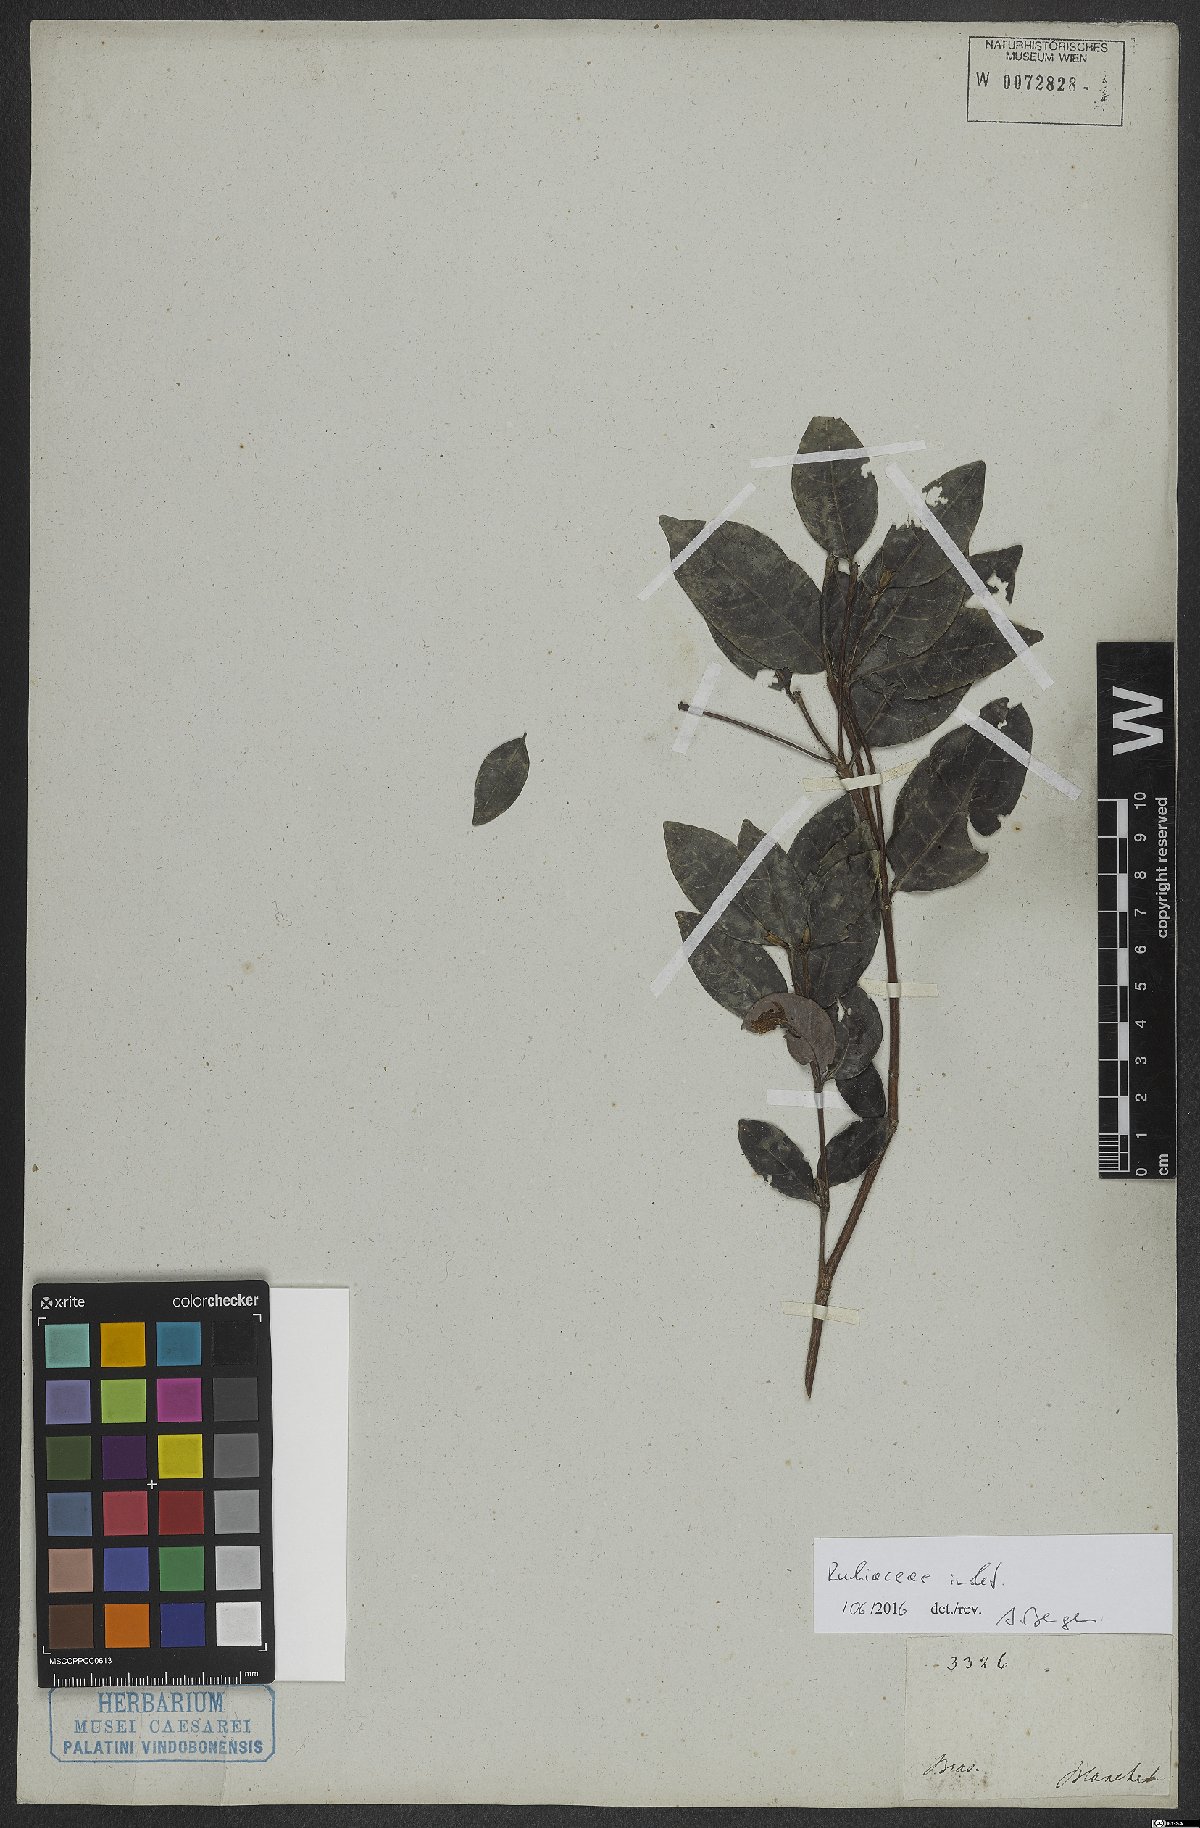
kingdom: Plantae
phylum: Tracheophyta
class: Magnoliopsida
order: Gentianales
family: Rubiaceae
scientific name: Rubiaceae
